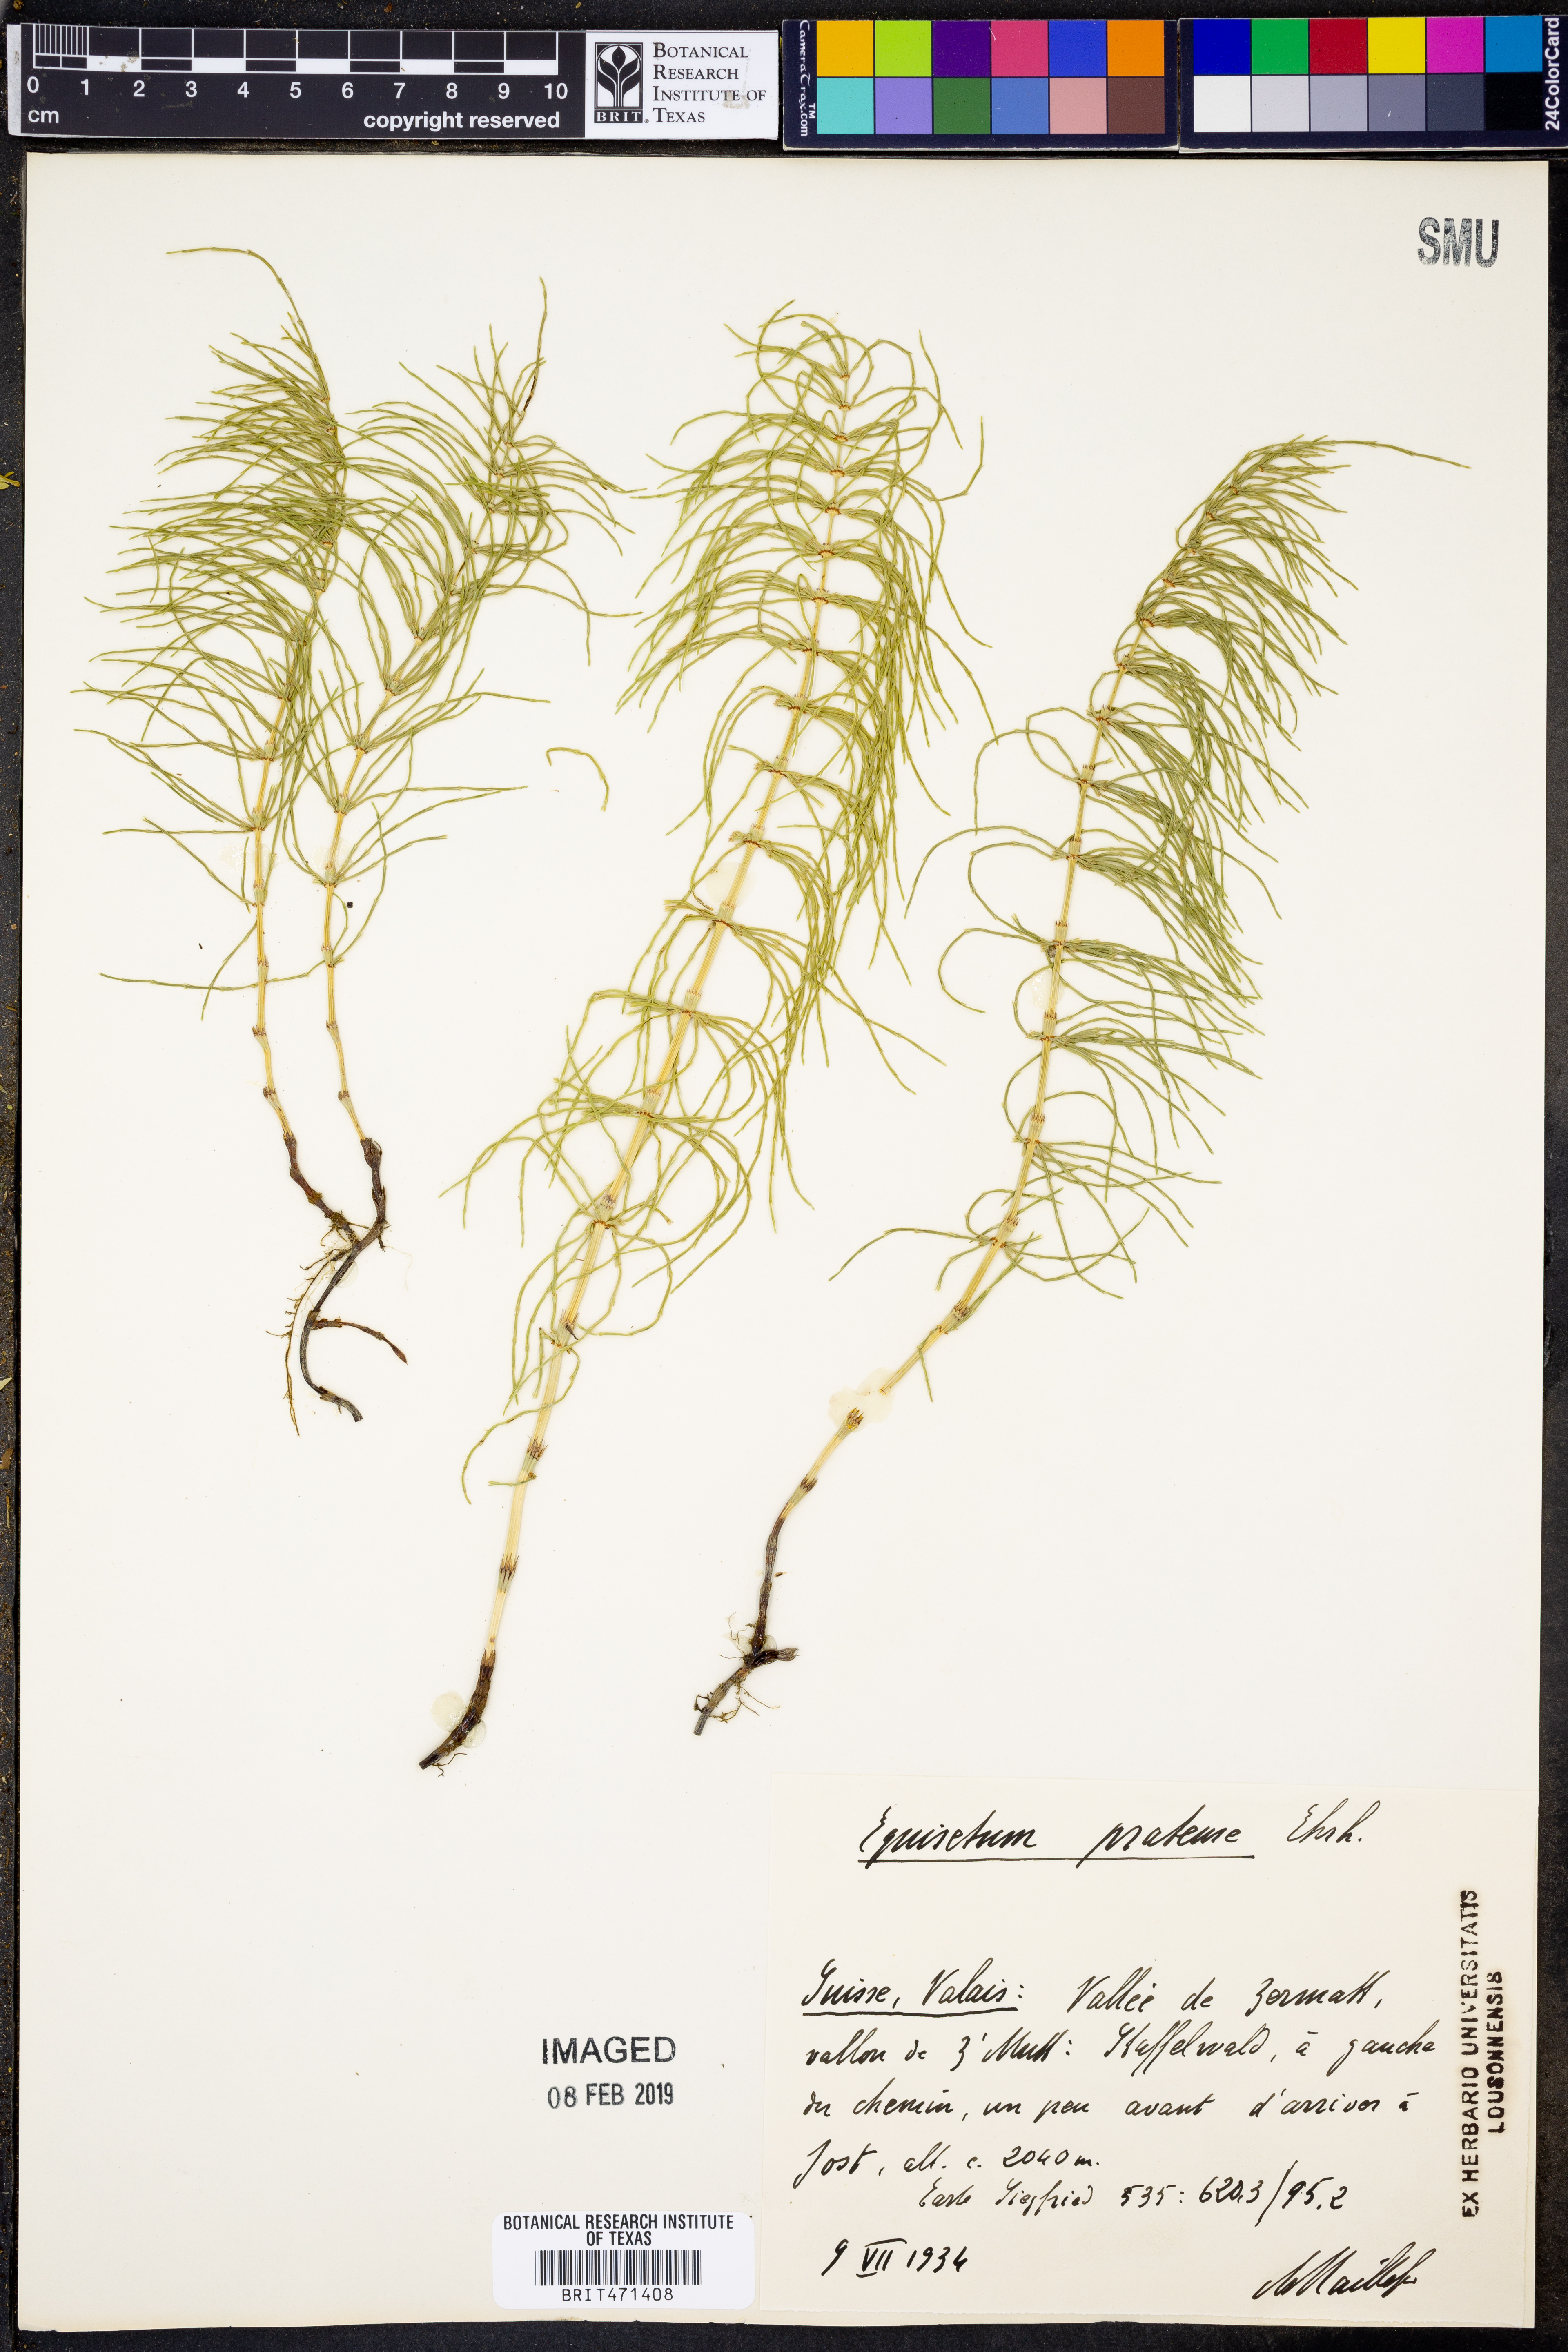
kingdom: Plantae
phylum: Tracheophyta
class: Polypodiopsida
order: Equisetales
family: Equisetaceae
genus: Equisetum
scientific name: Equisetum pratense
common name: Meadow horsetail
